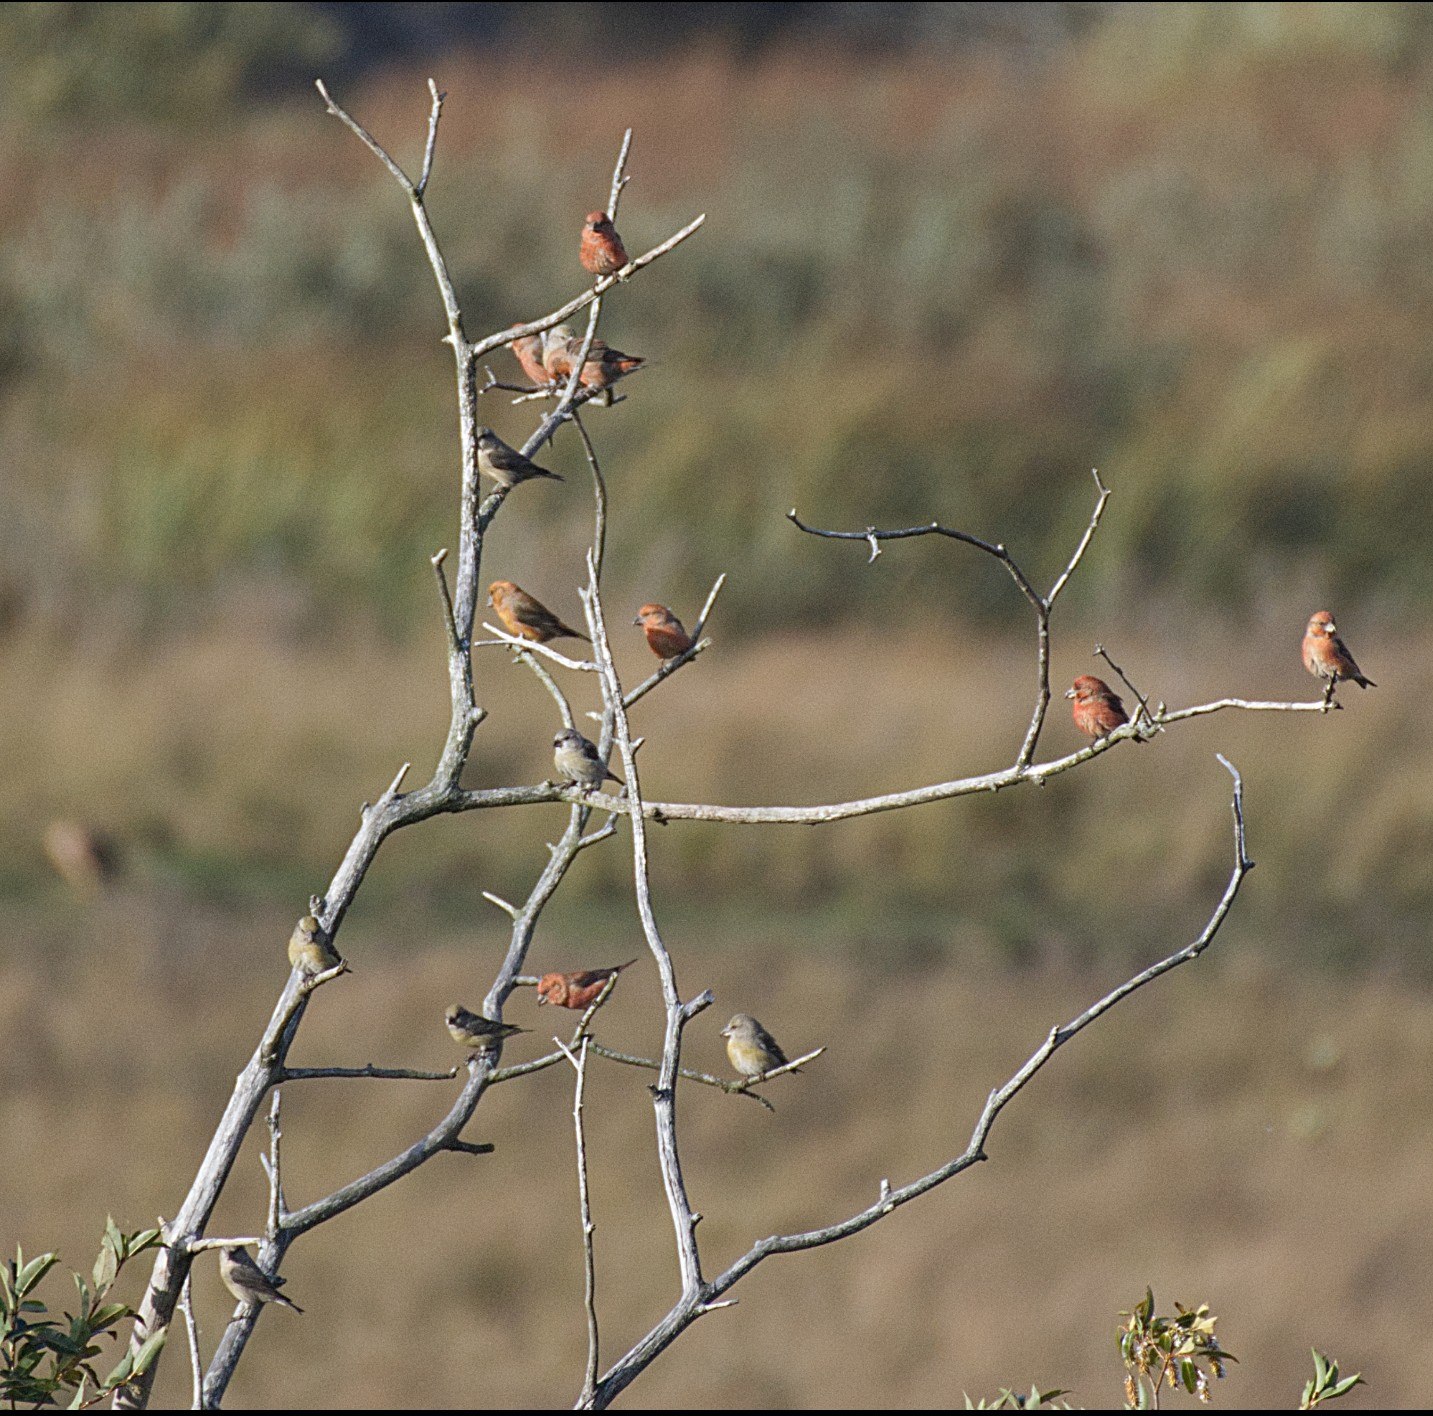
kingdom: Animalia
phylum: Chordata
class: Aves
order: Passeriformes
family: Fringillidae
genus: Loxia
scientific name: Loxia curvirostra
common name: Lille korsnæb
